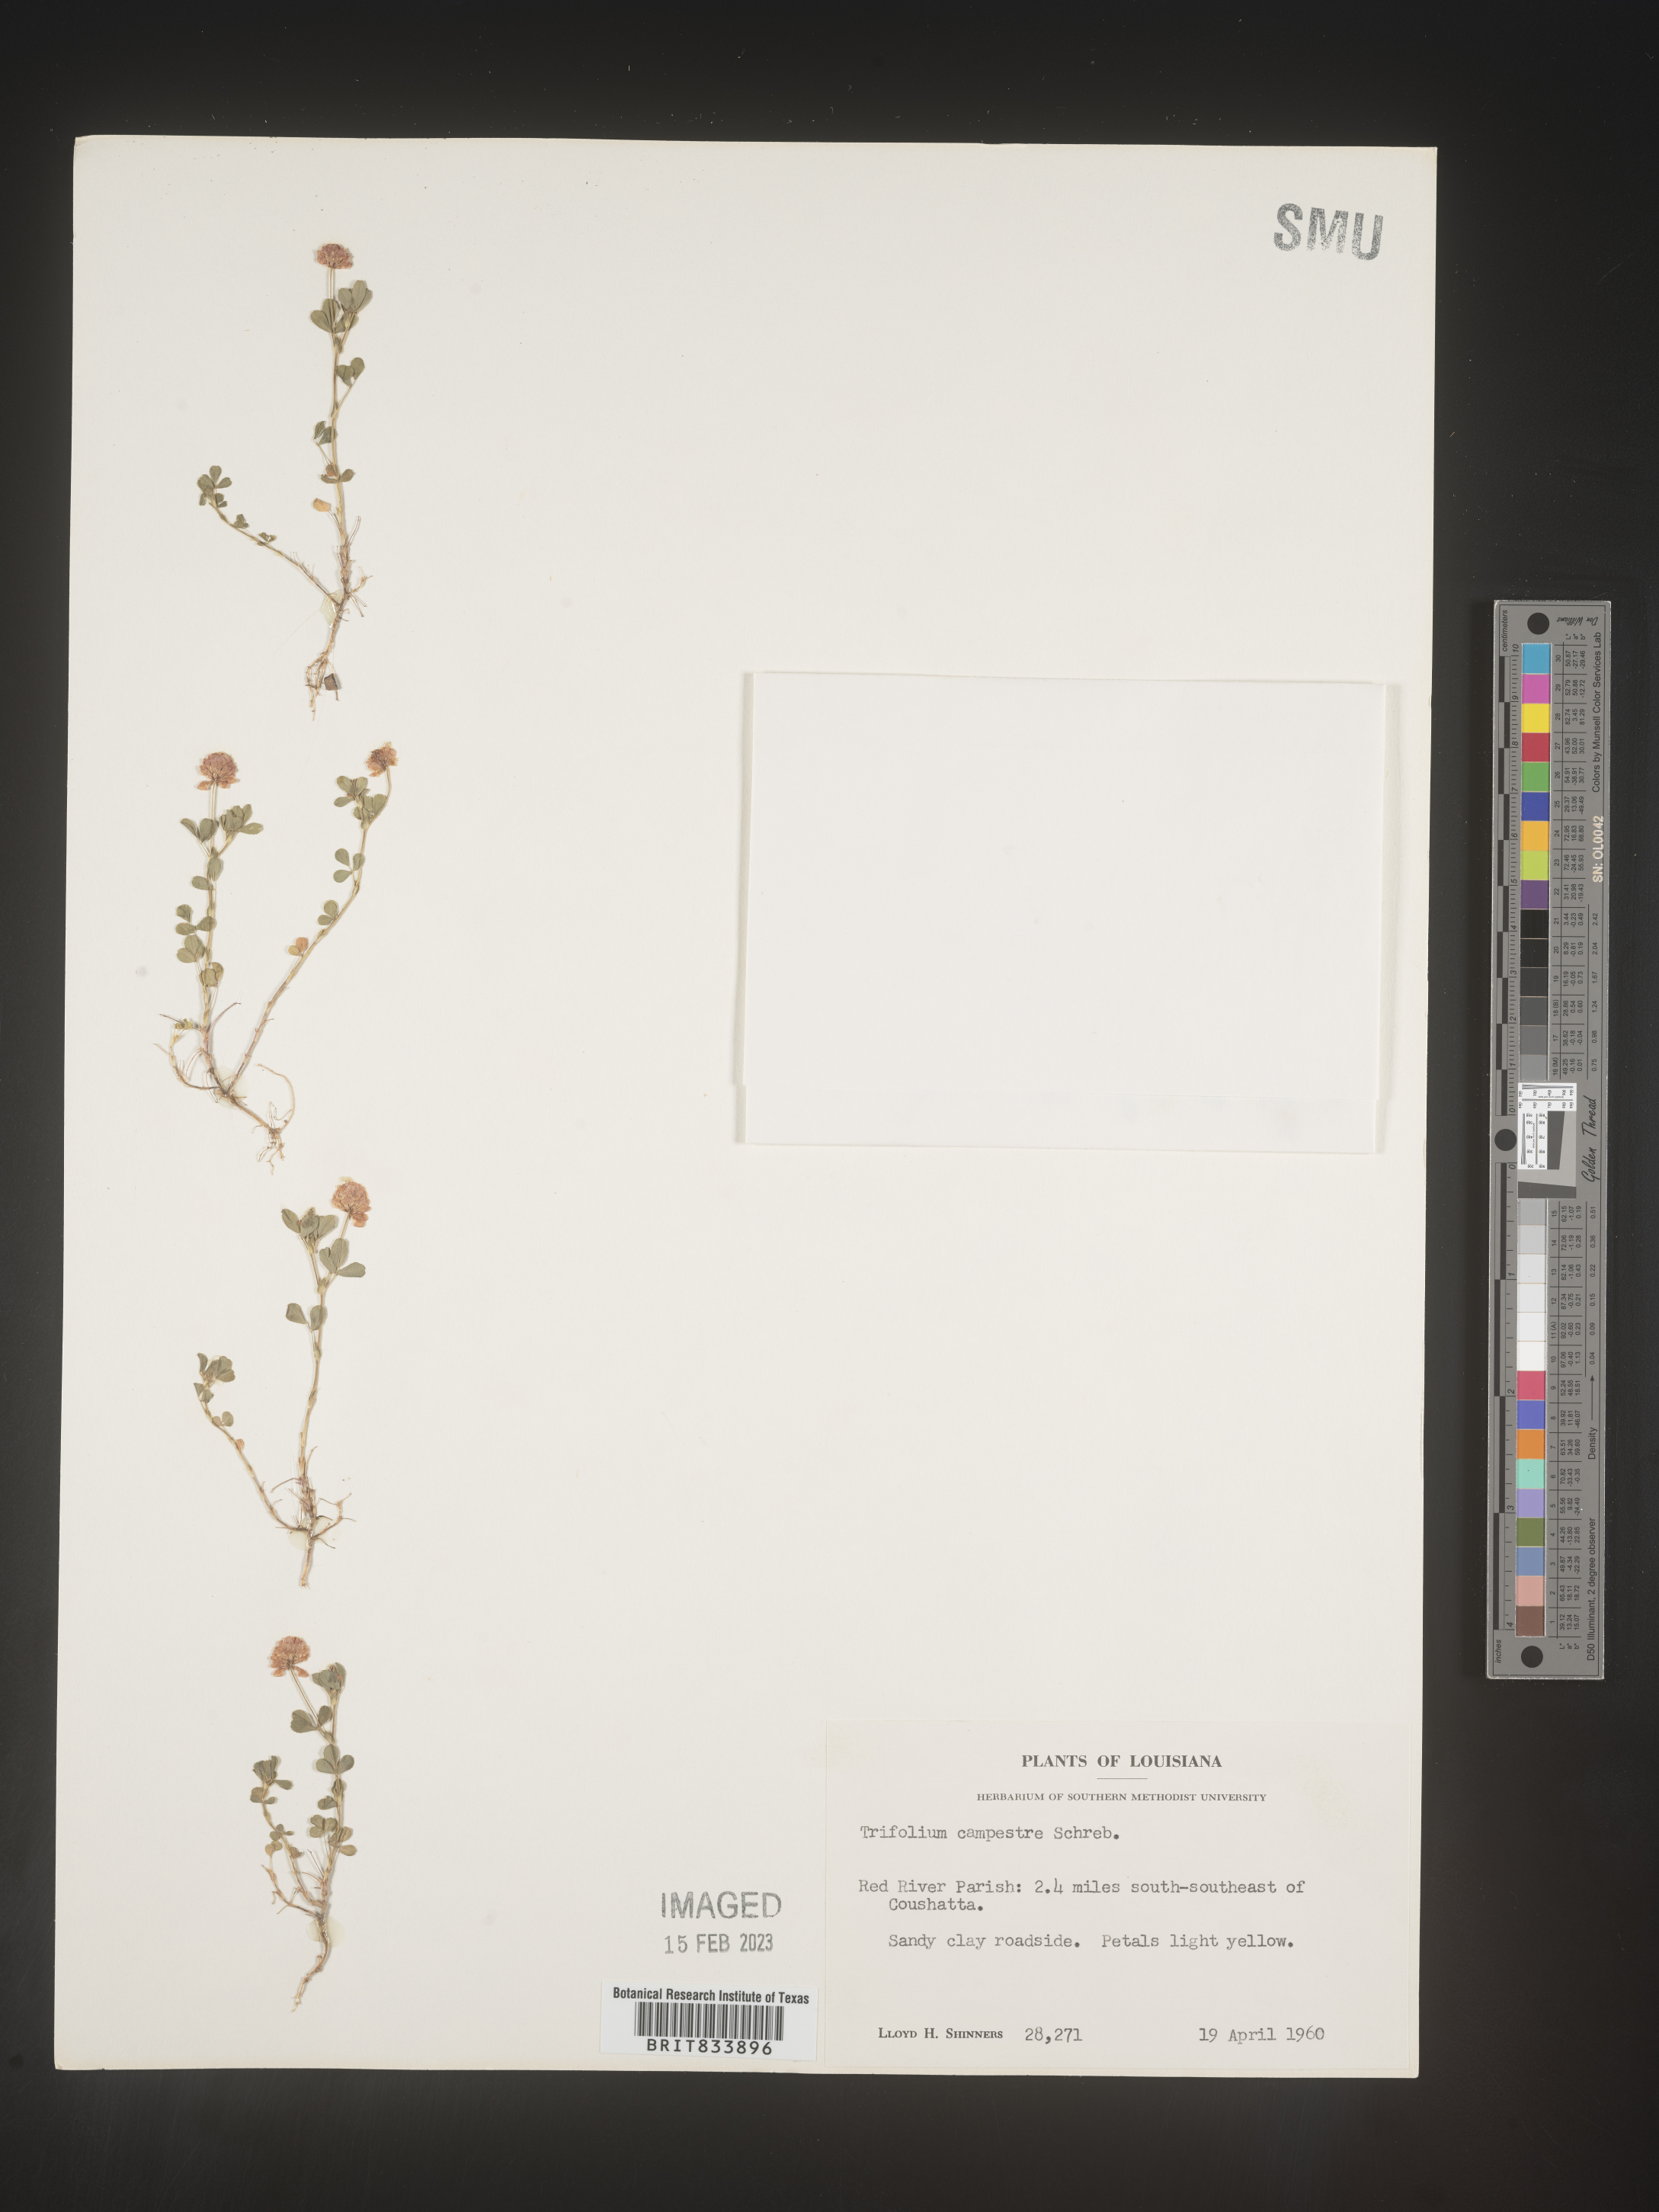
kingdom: Plantae
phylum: Tracheophyta
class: Magnoliopsida
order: Fabales
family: Fabaceae
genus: Trifolium
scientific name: Trifolium campestre
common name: Field clover
